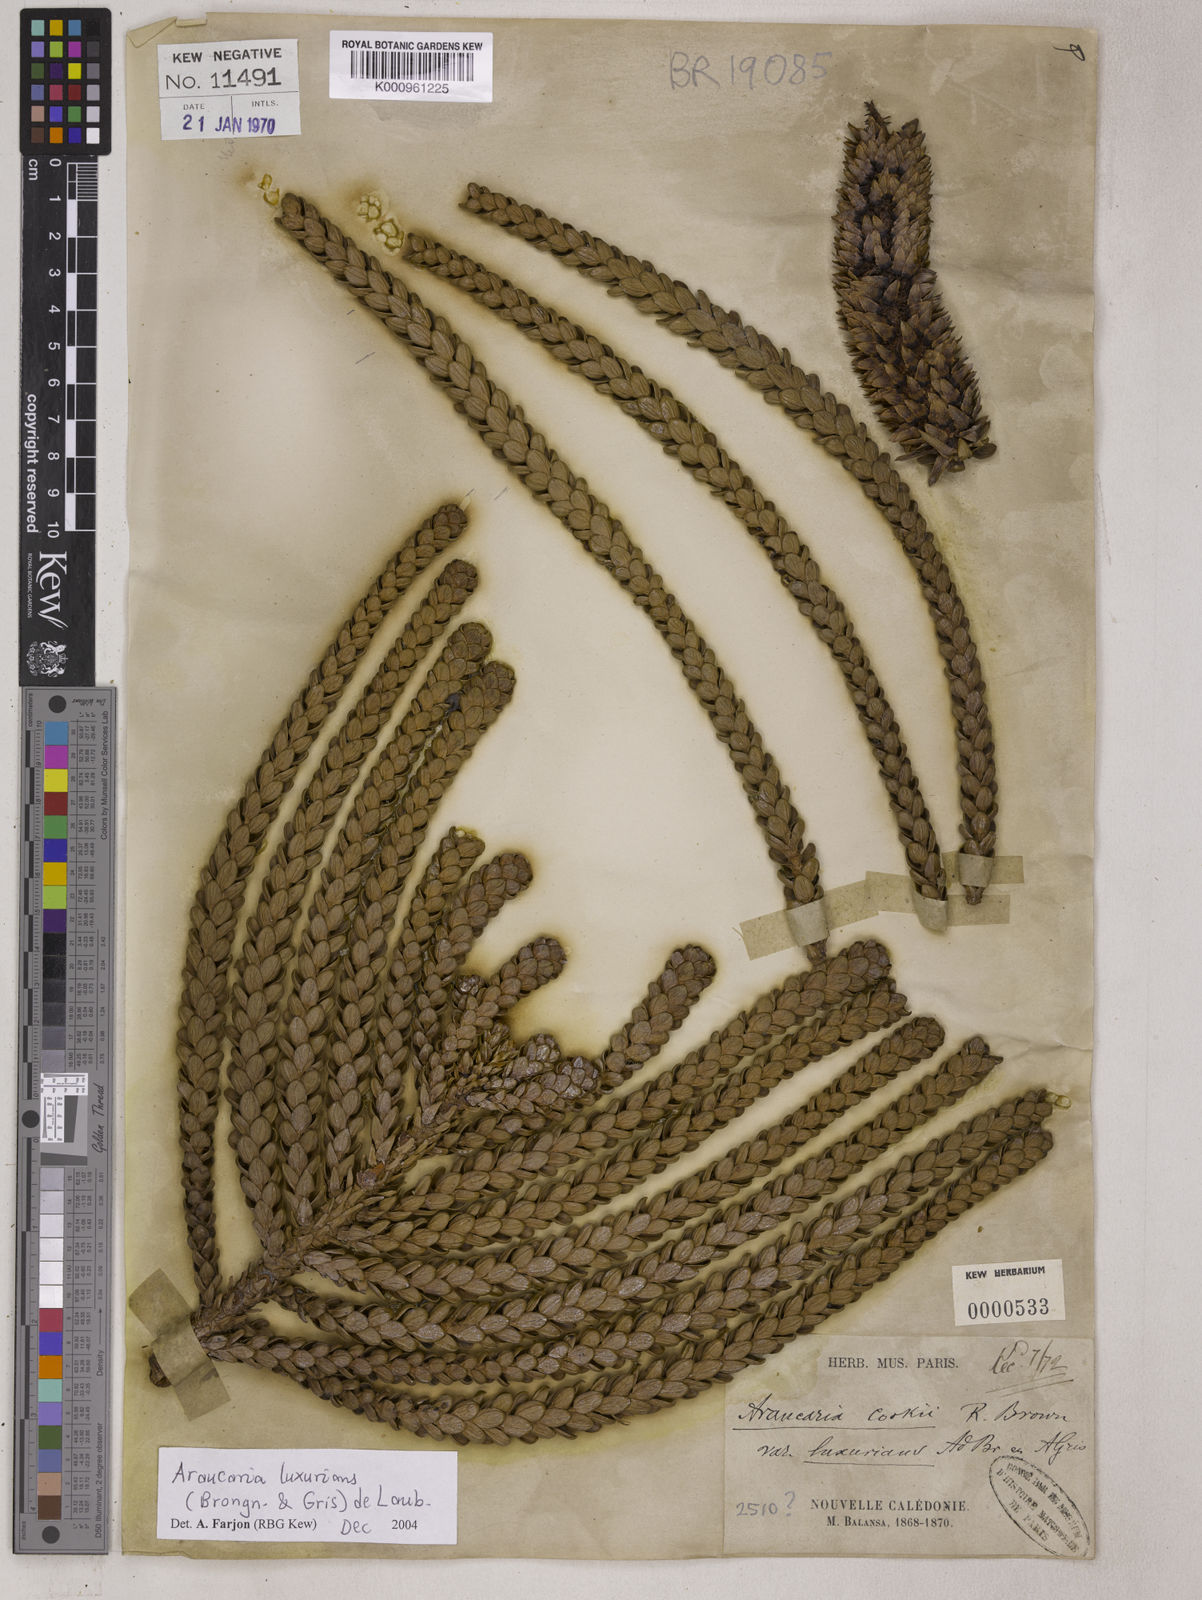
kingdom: Plantae
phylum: Tracheophyta
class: Pinopsida
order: Pinales
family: Araucariaceae
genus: Araucaria
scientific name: Araucaria luxurians
